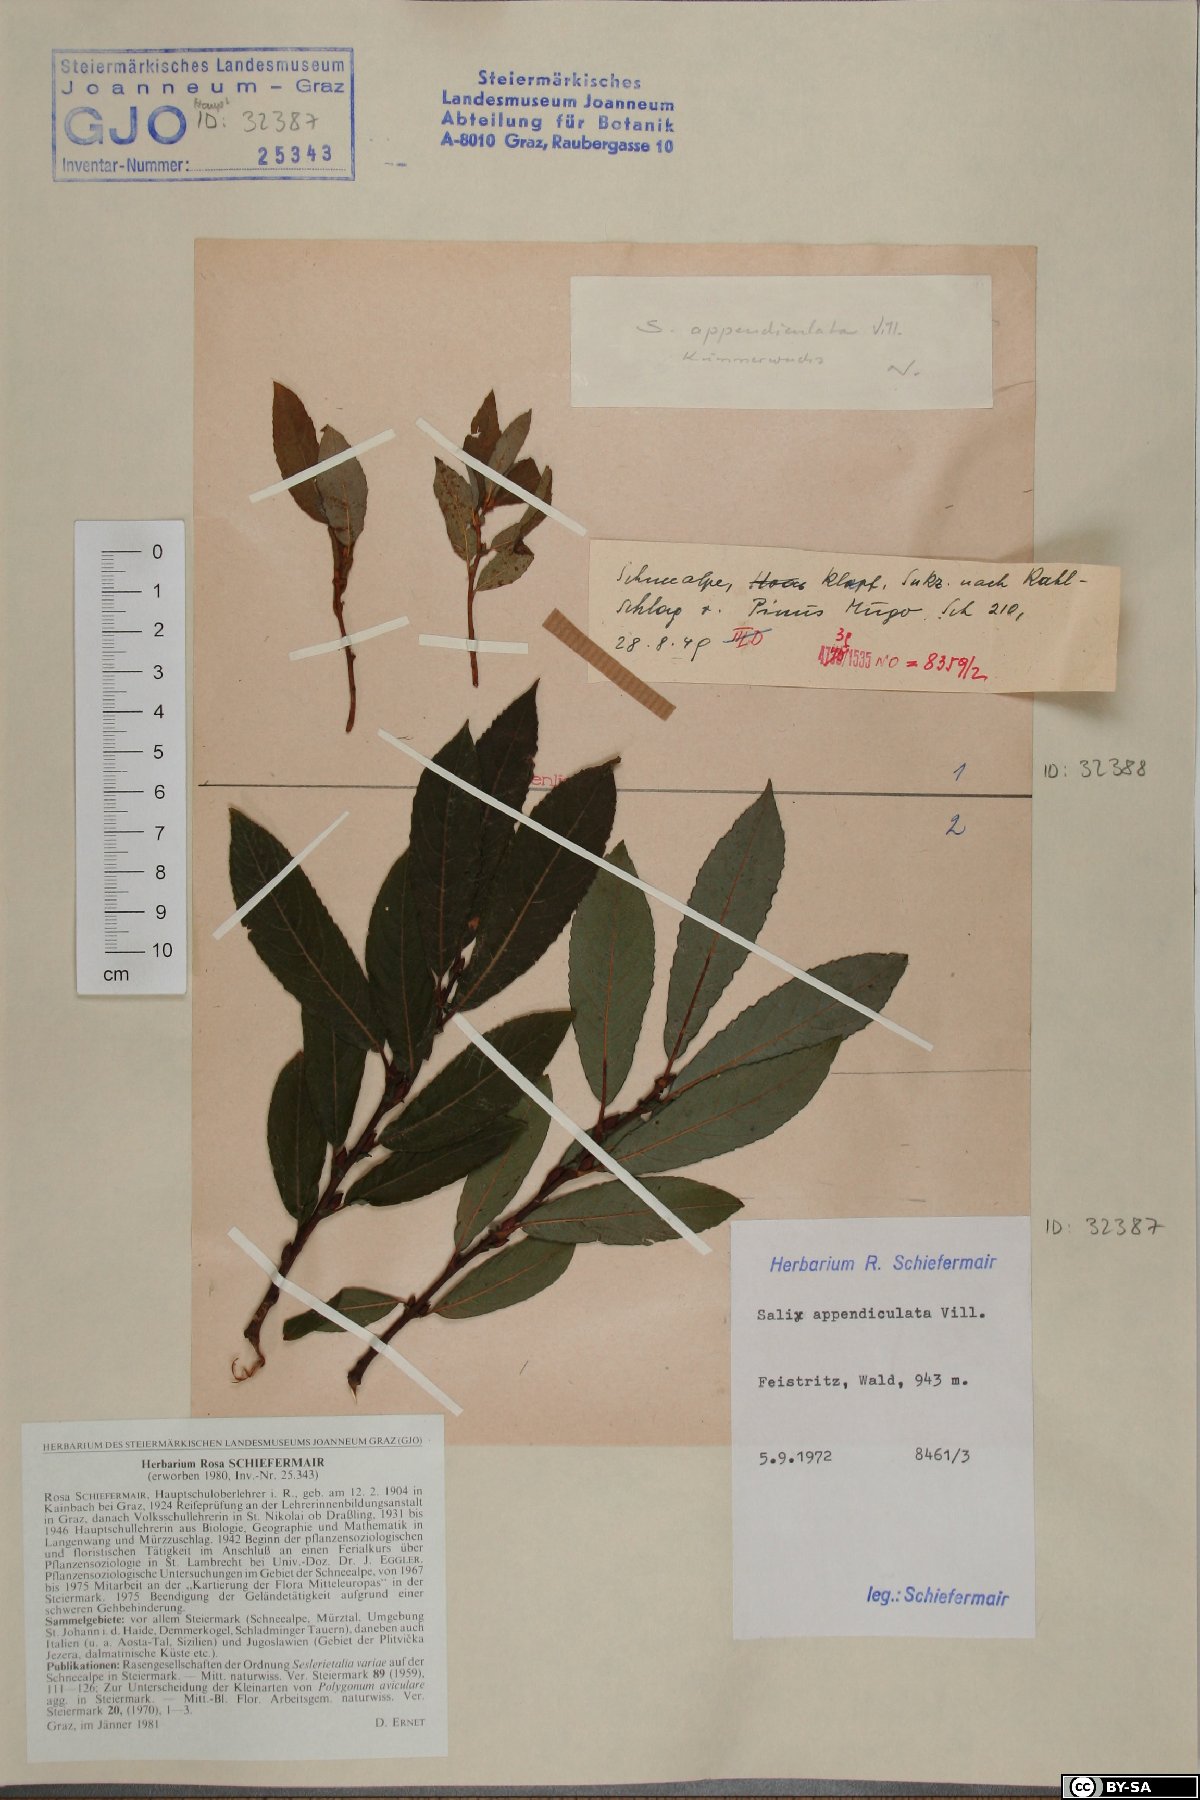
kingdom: Plantae
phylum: Tracheophyta
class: Magnoliopsida
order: Malpighiales
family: Salicaceae
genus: Salix
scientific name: Salix appendiculata
